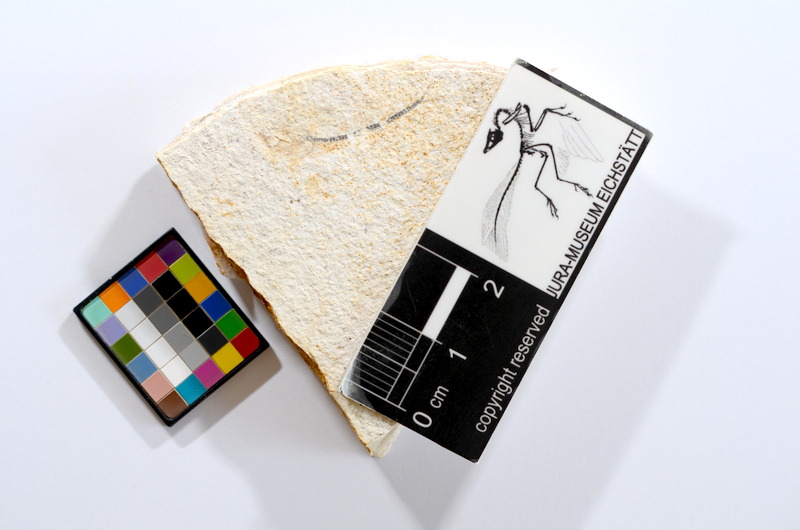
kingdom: Animalia
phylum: Chordata
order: Salmoniformes
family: Orthogonikleithridae
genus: Orthogonikleithrus
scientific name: Orthogonikleithrus hoelli
